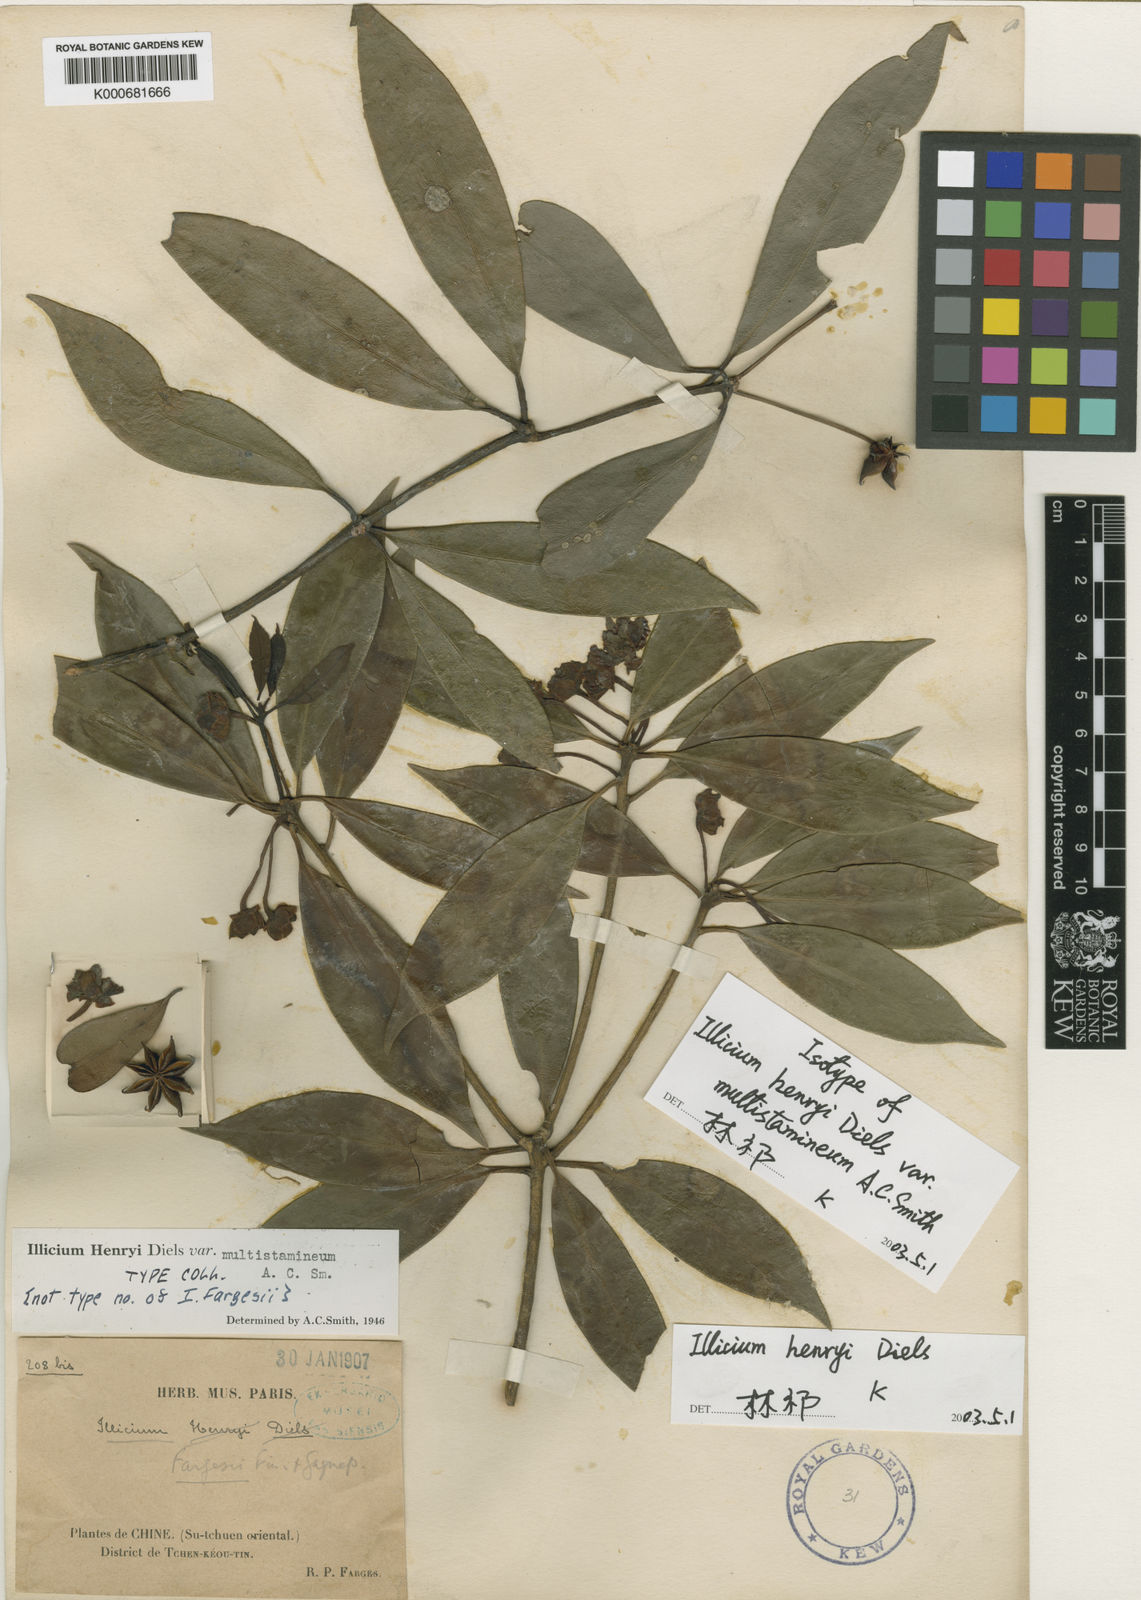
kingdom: Plantae
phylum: Tracheophyta
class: Magnoliopsida
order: Austrobaileyales
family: Schisandraceae
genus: Illicium
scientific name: Illicium henryi
